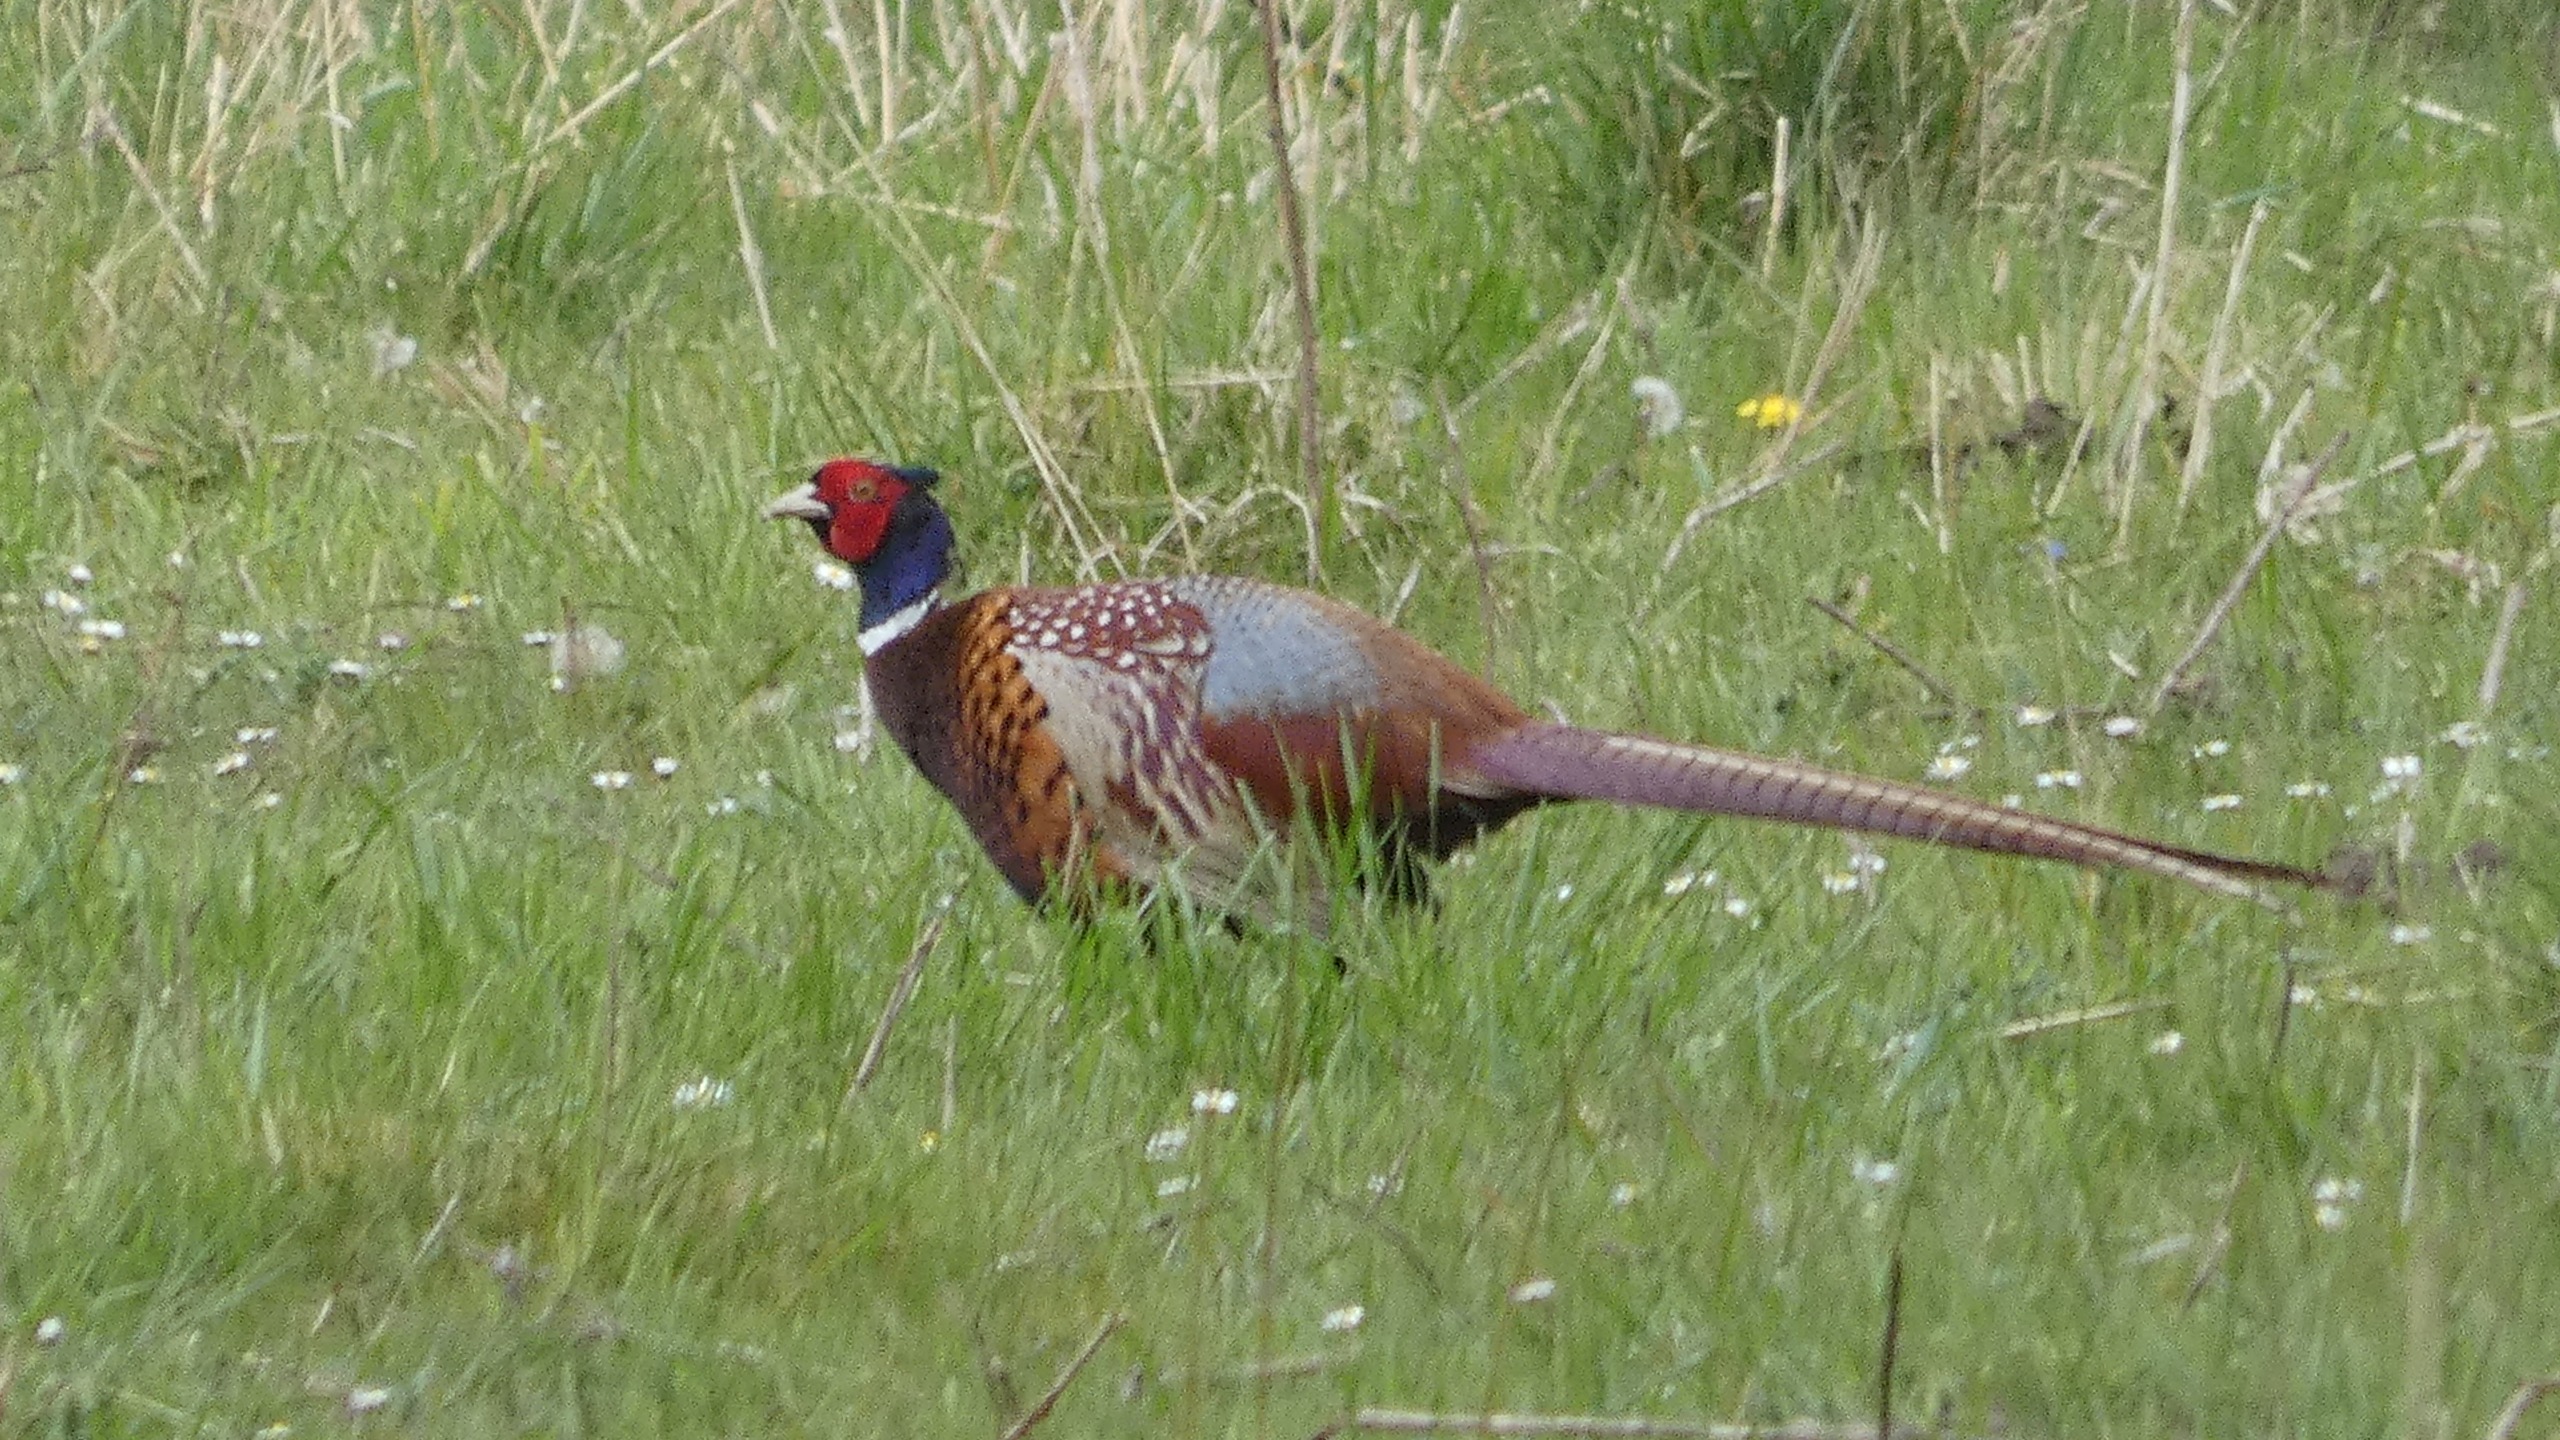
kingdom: Animalia
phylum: Chordata
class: Aves
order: Galliformes
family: Phasianidae
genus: Phasianus
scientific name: Phasianus colchicus
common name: Fasan
